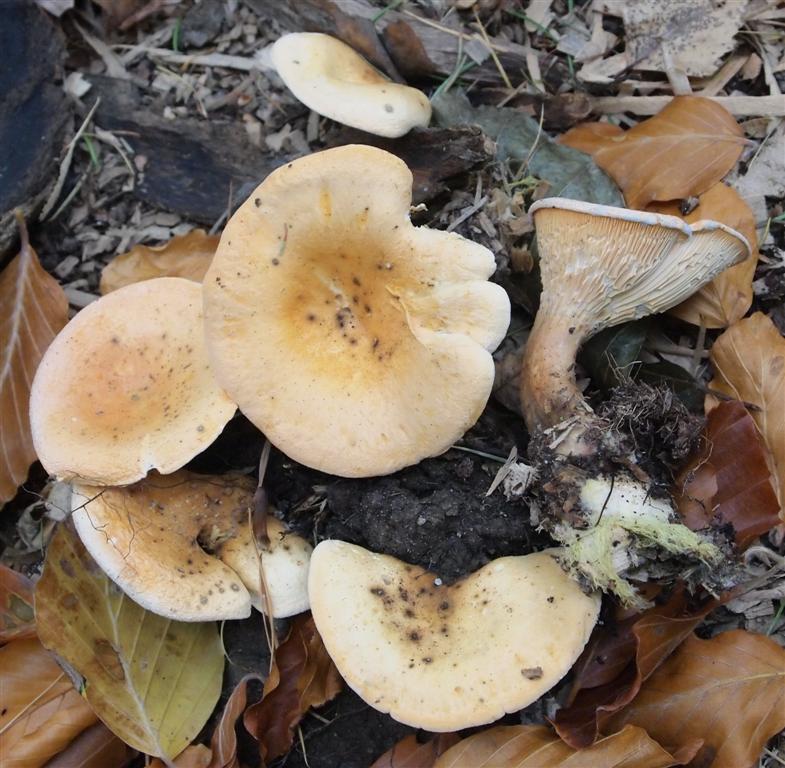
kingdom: Fungi
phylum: Basidiomycota
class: Agaricomycetes
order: Boletales
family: Hygrophoropsidaceae
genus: Hygrophoropsis
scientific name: Hygrophoropsis aurantiaca
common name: almindelig orangekantarel
